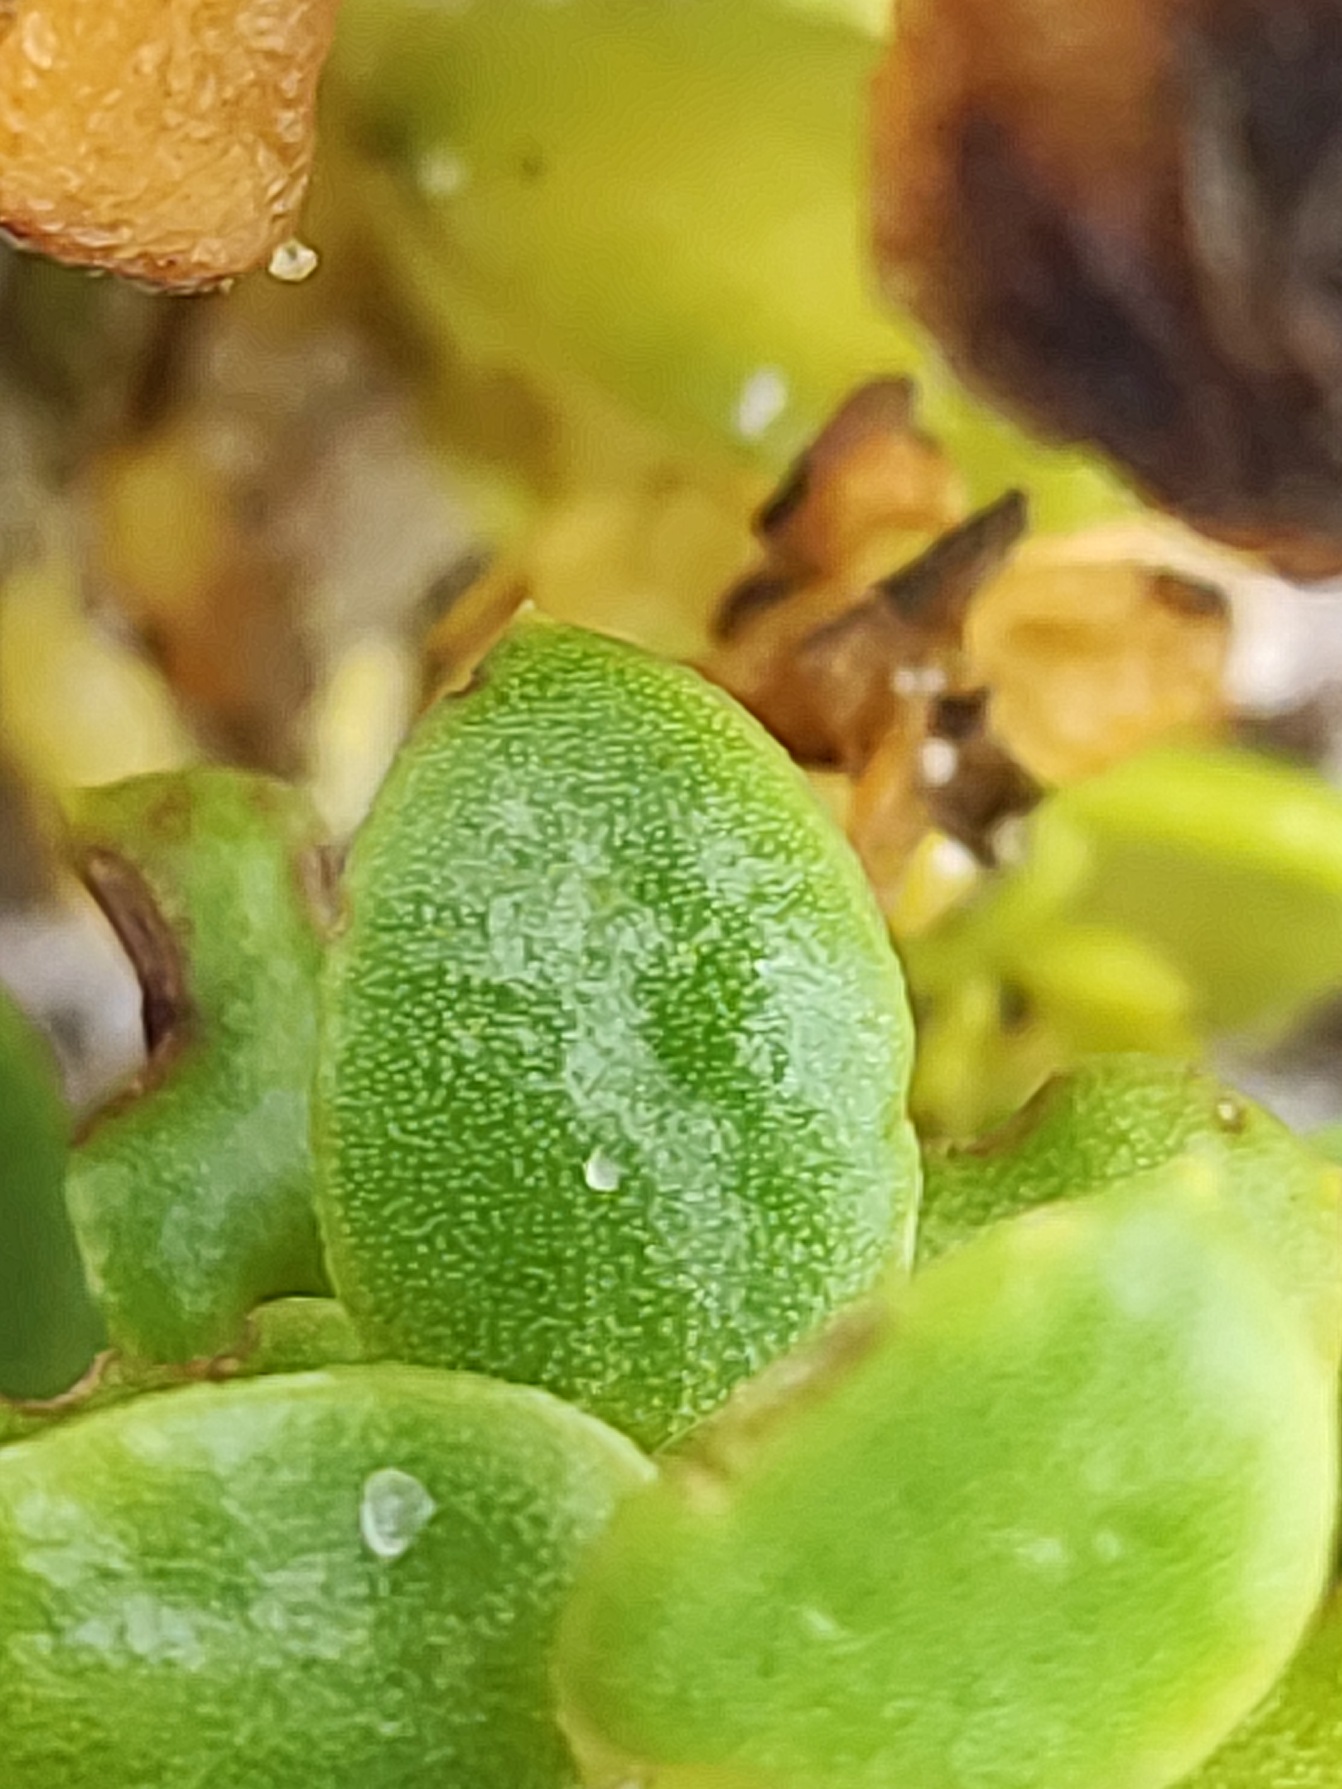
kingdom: Plantae
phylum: Tracheophyta
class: Magnoliopsida
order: Caryophyllales
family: Caryophyllaceae
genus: Honckenya
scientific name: Honckenya peploides
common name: Strandarve
